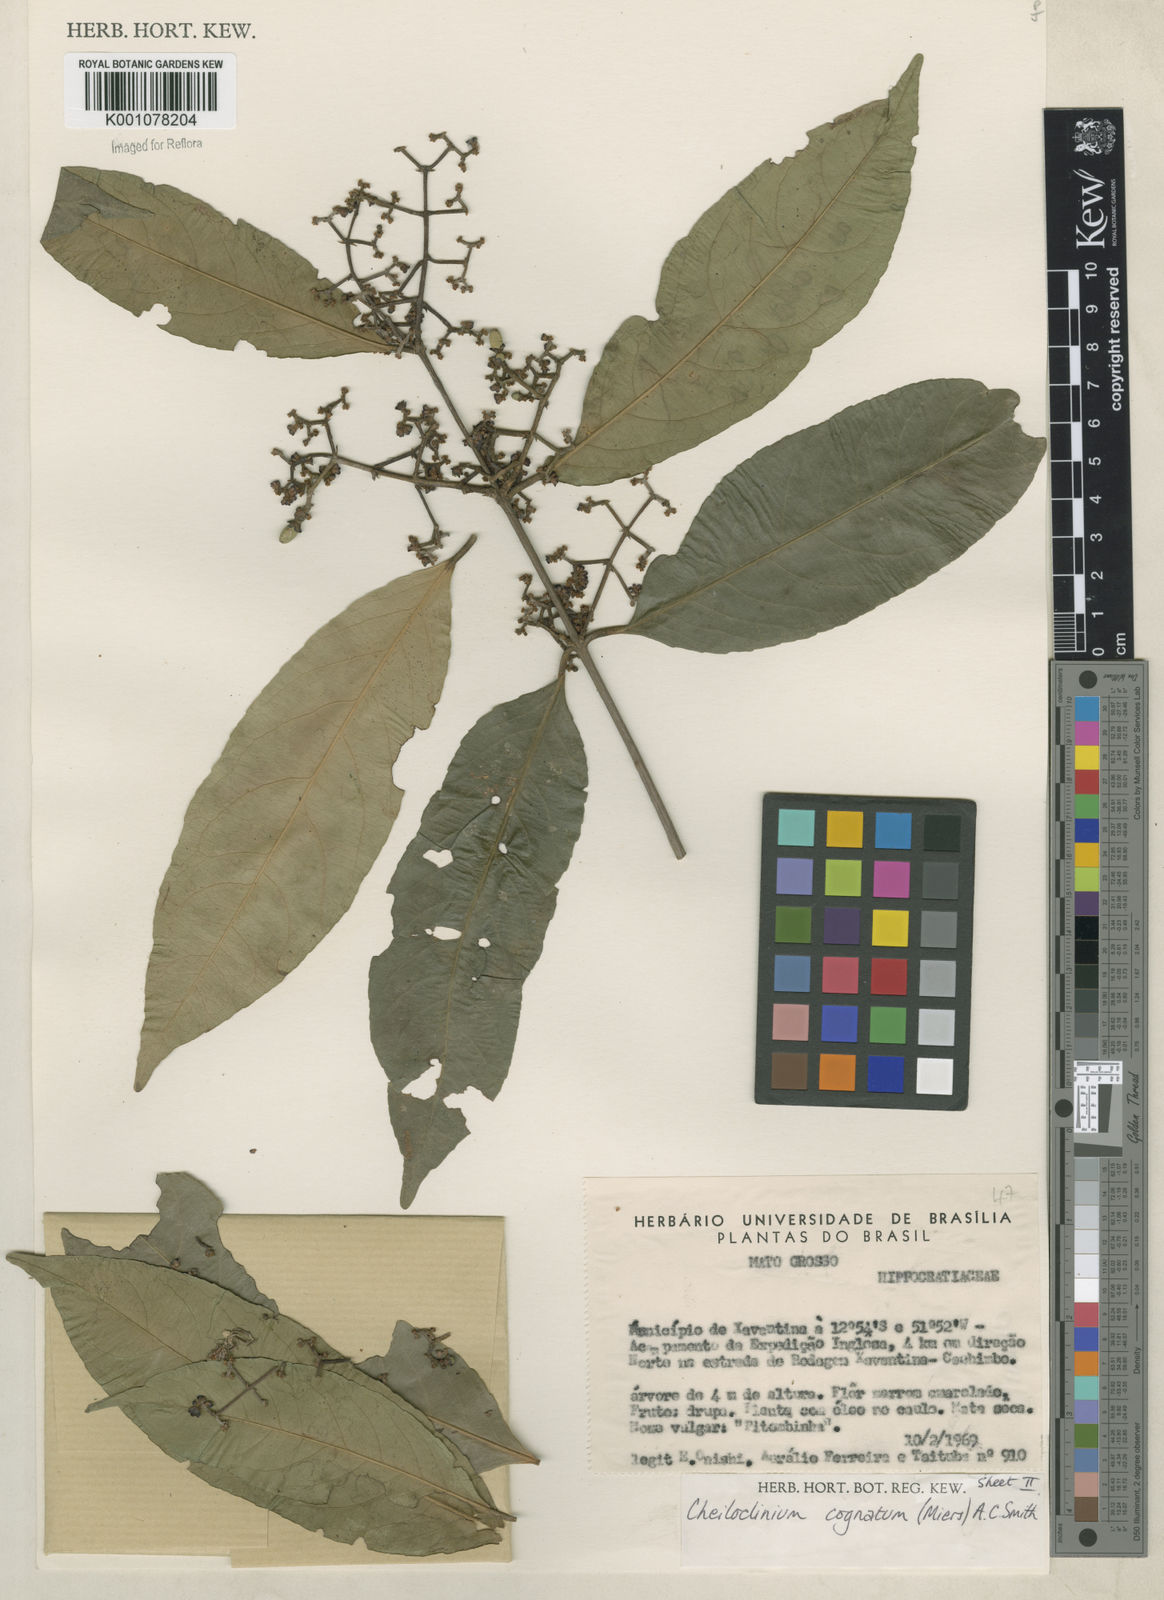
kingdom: Plantae
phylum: Tracheophyta
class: Magnoliopsida
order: Celastrales
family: Celastraceae
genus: Cheiloclinium
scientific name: Cheiloclinium cognatum
